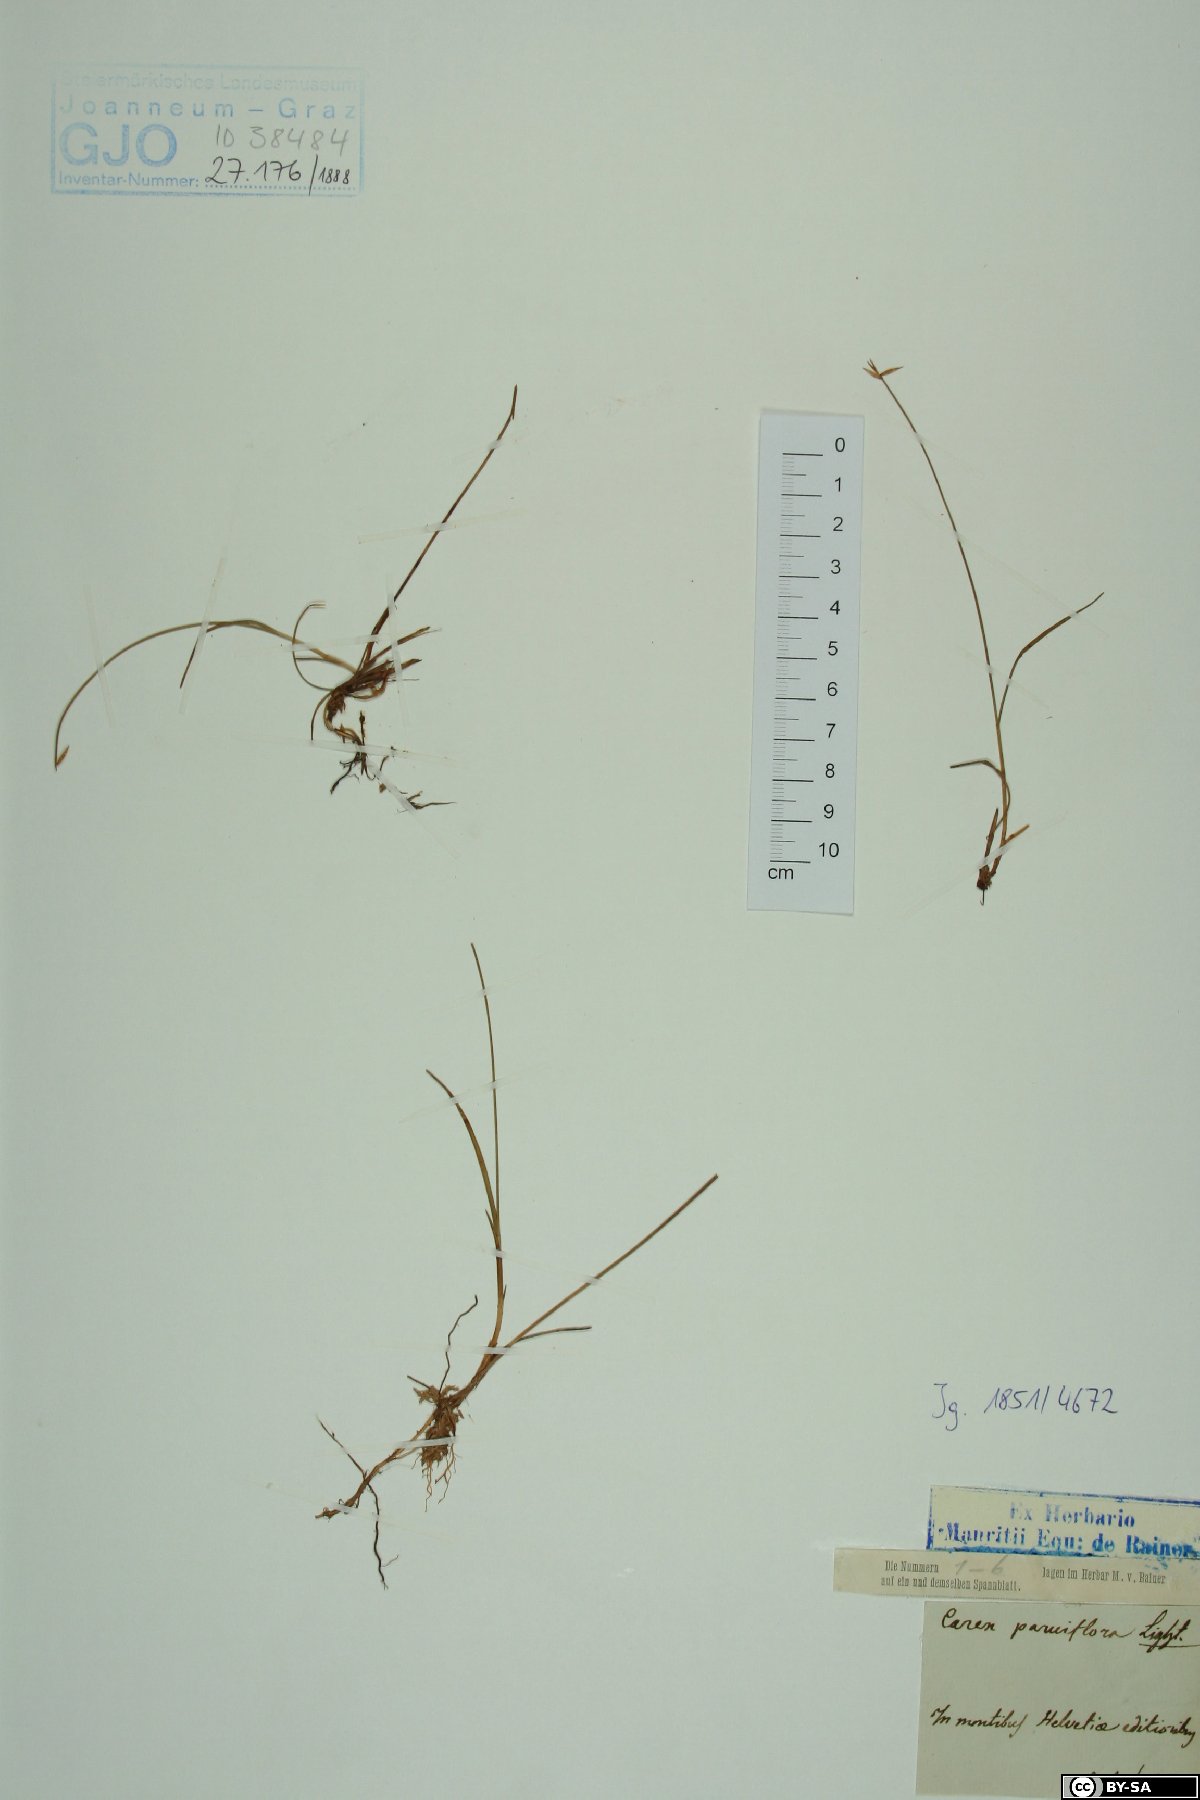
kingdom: Plantae
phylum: Tracheophyta
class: Liliopsida
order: Poales
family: Cyperaceae
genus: Carex
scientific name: Carex pauciflora
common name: Few-flowered sedge
